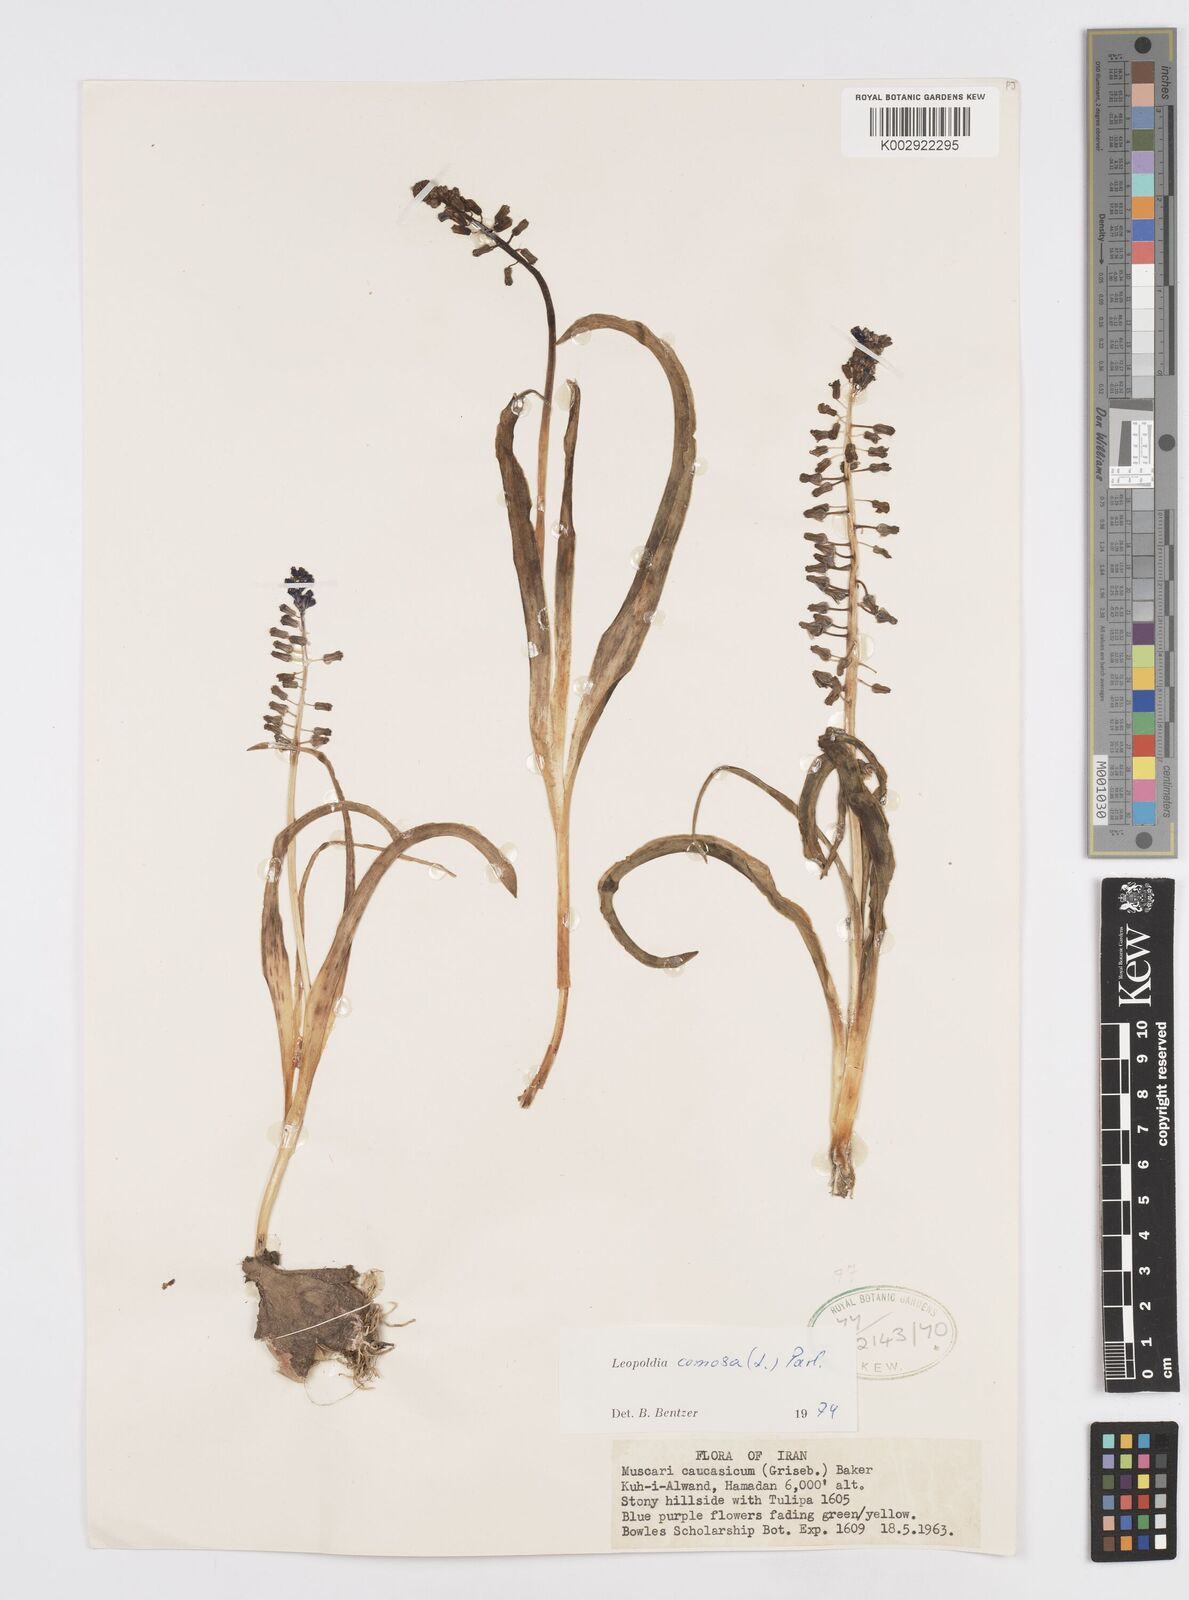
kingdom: Plantae
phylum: Tracheophyta
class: Liliopsida
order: Asparagales
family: Asparagaceae
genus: Muscari
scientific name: Muscari comosum
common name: Tassel hyacinth
